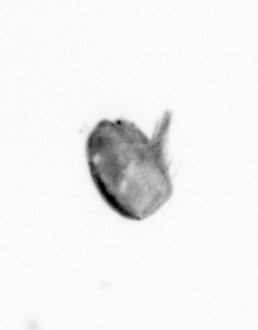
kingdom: Animalia
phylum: Arthropoda
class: Maxillopoda
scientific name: Maxillopoda
